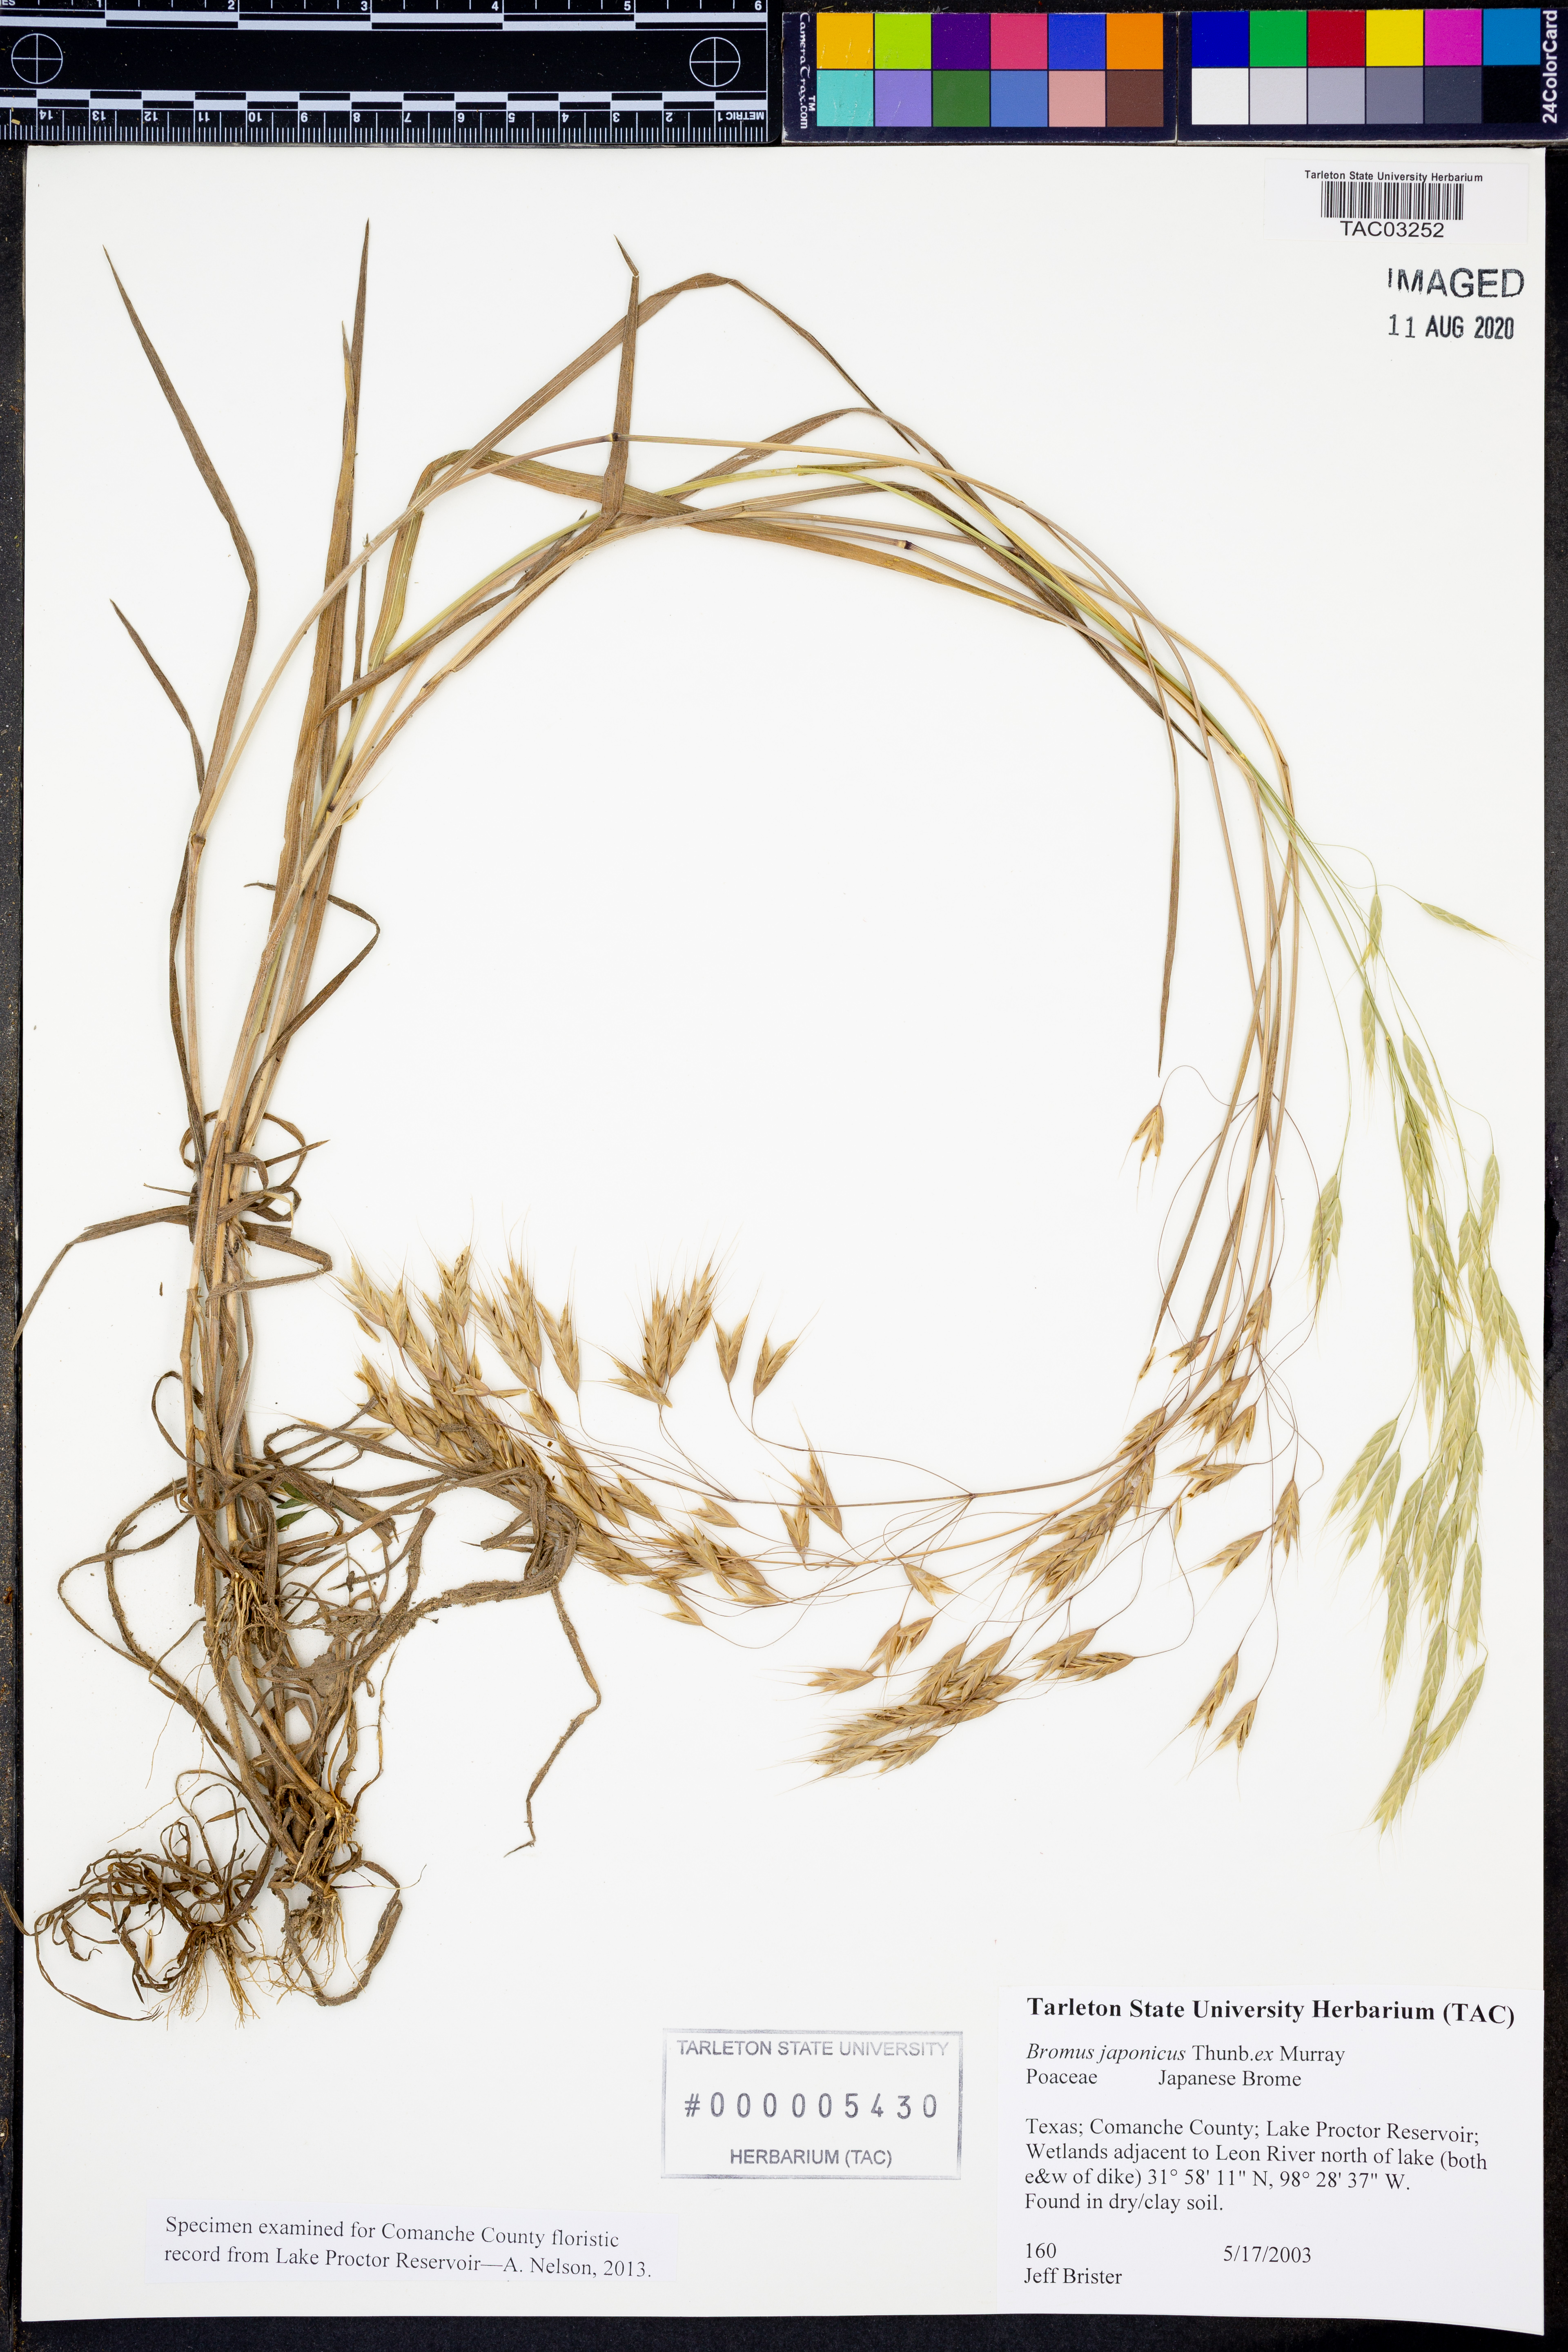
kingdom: Plantae
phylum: Tracheophyta
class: Liliopsida
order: Poales
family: Poaceae
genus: Bromus
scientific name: Bromus japonicus
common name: Japanese brome
